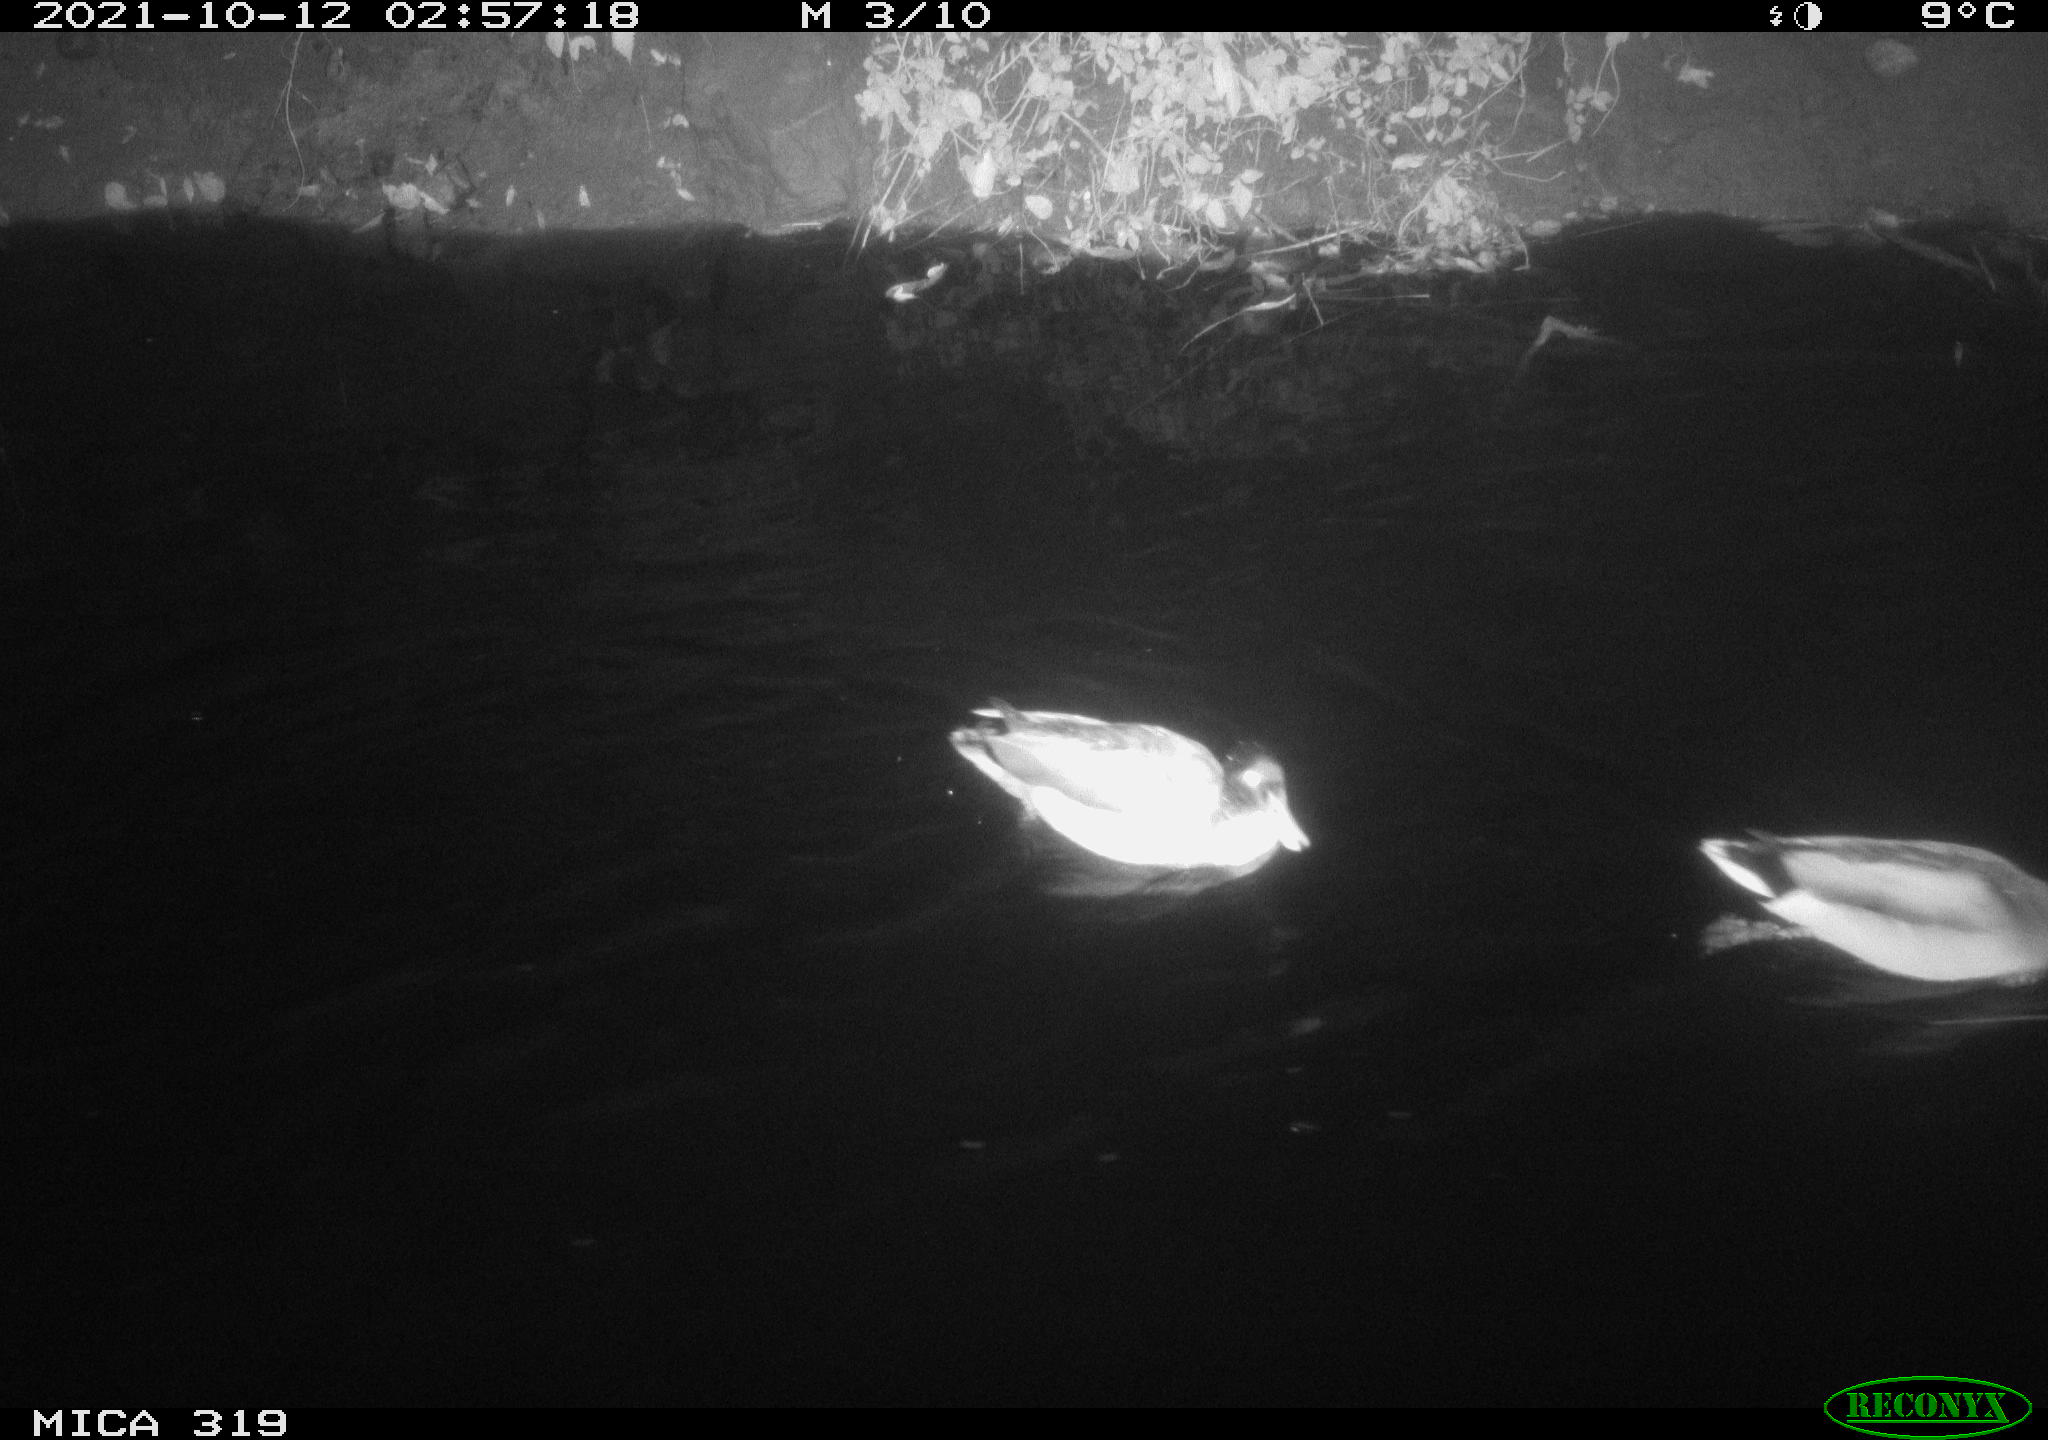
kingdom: Animalia
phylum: Chordata
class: Aves
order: Anseriformes
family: Anatidae
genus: Anas
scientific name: Anas platyrhynchos
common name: Mallard
